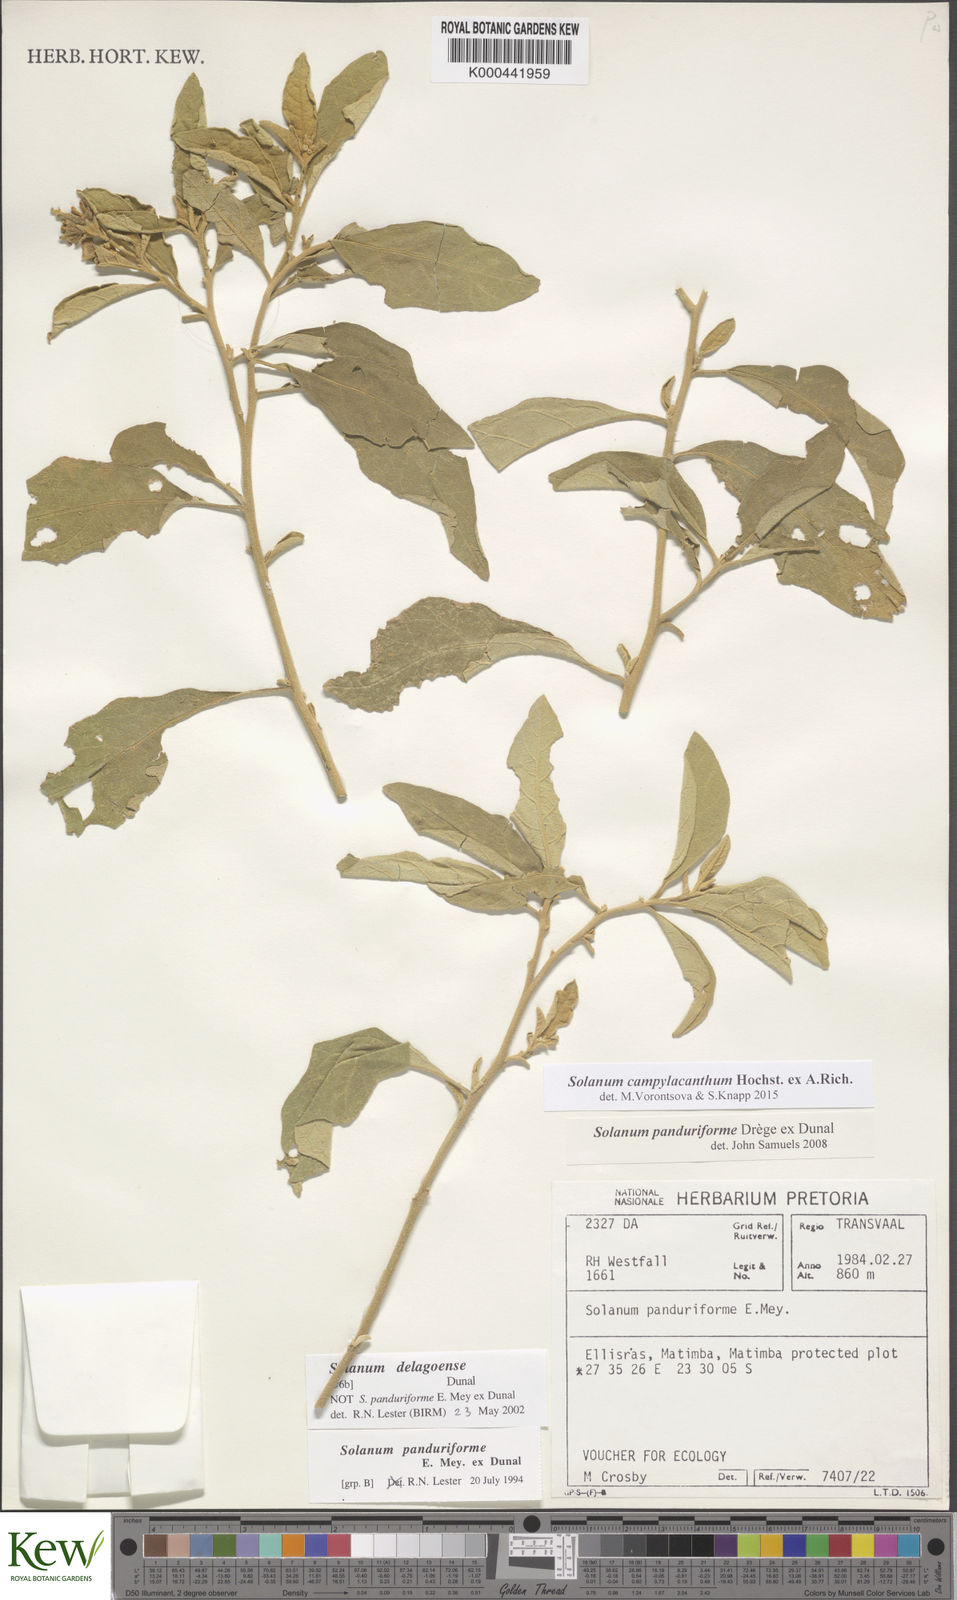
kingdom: Plantae
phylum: Tracheophyta
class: Magnoliopsida
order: Solanales
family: Solanaceae
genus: Solanum
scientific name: Solanum campylacanthum
